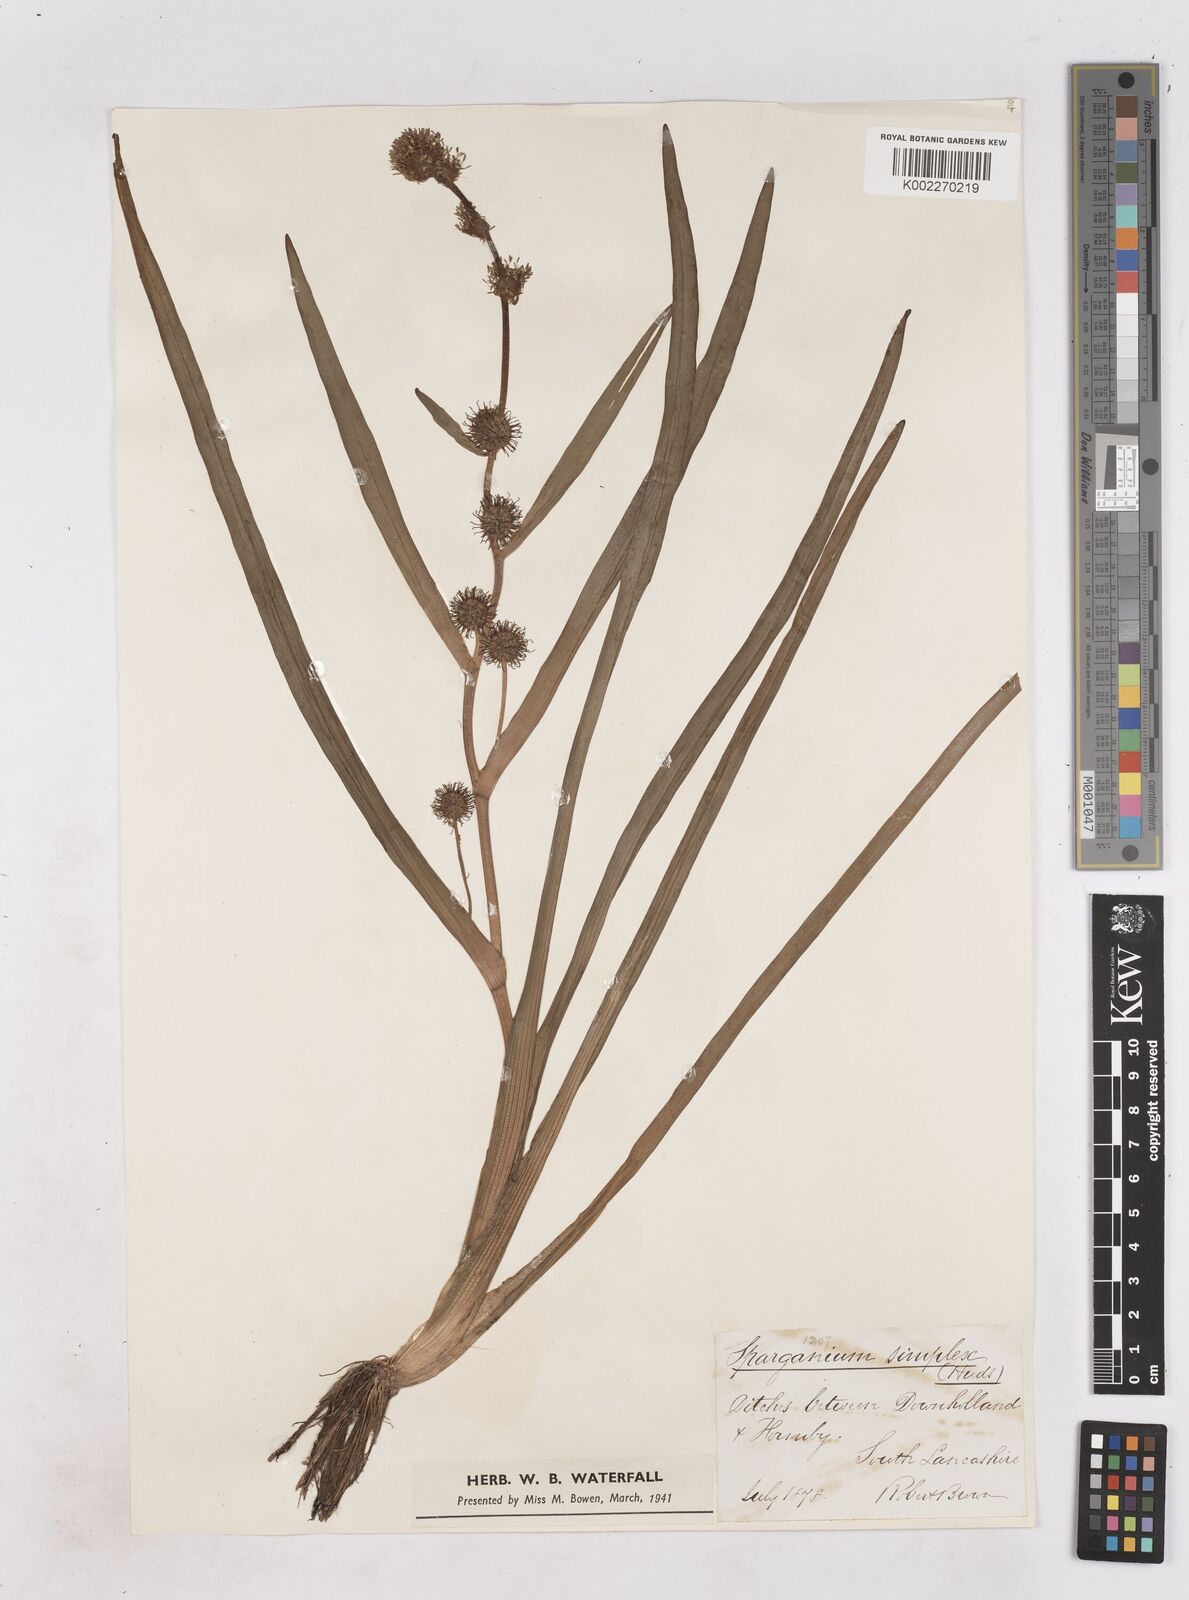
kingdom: Plantae
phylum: Tracheophyta
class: Liliopsida
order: Poales
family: Typhaceae
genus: Sparganium
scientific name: Sparganium emersum
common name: Unbranched bur-reed
